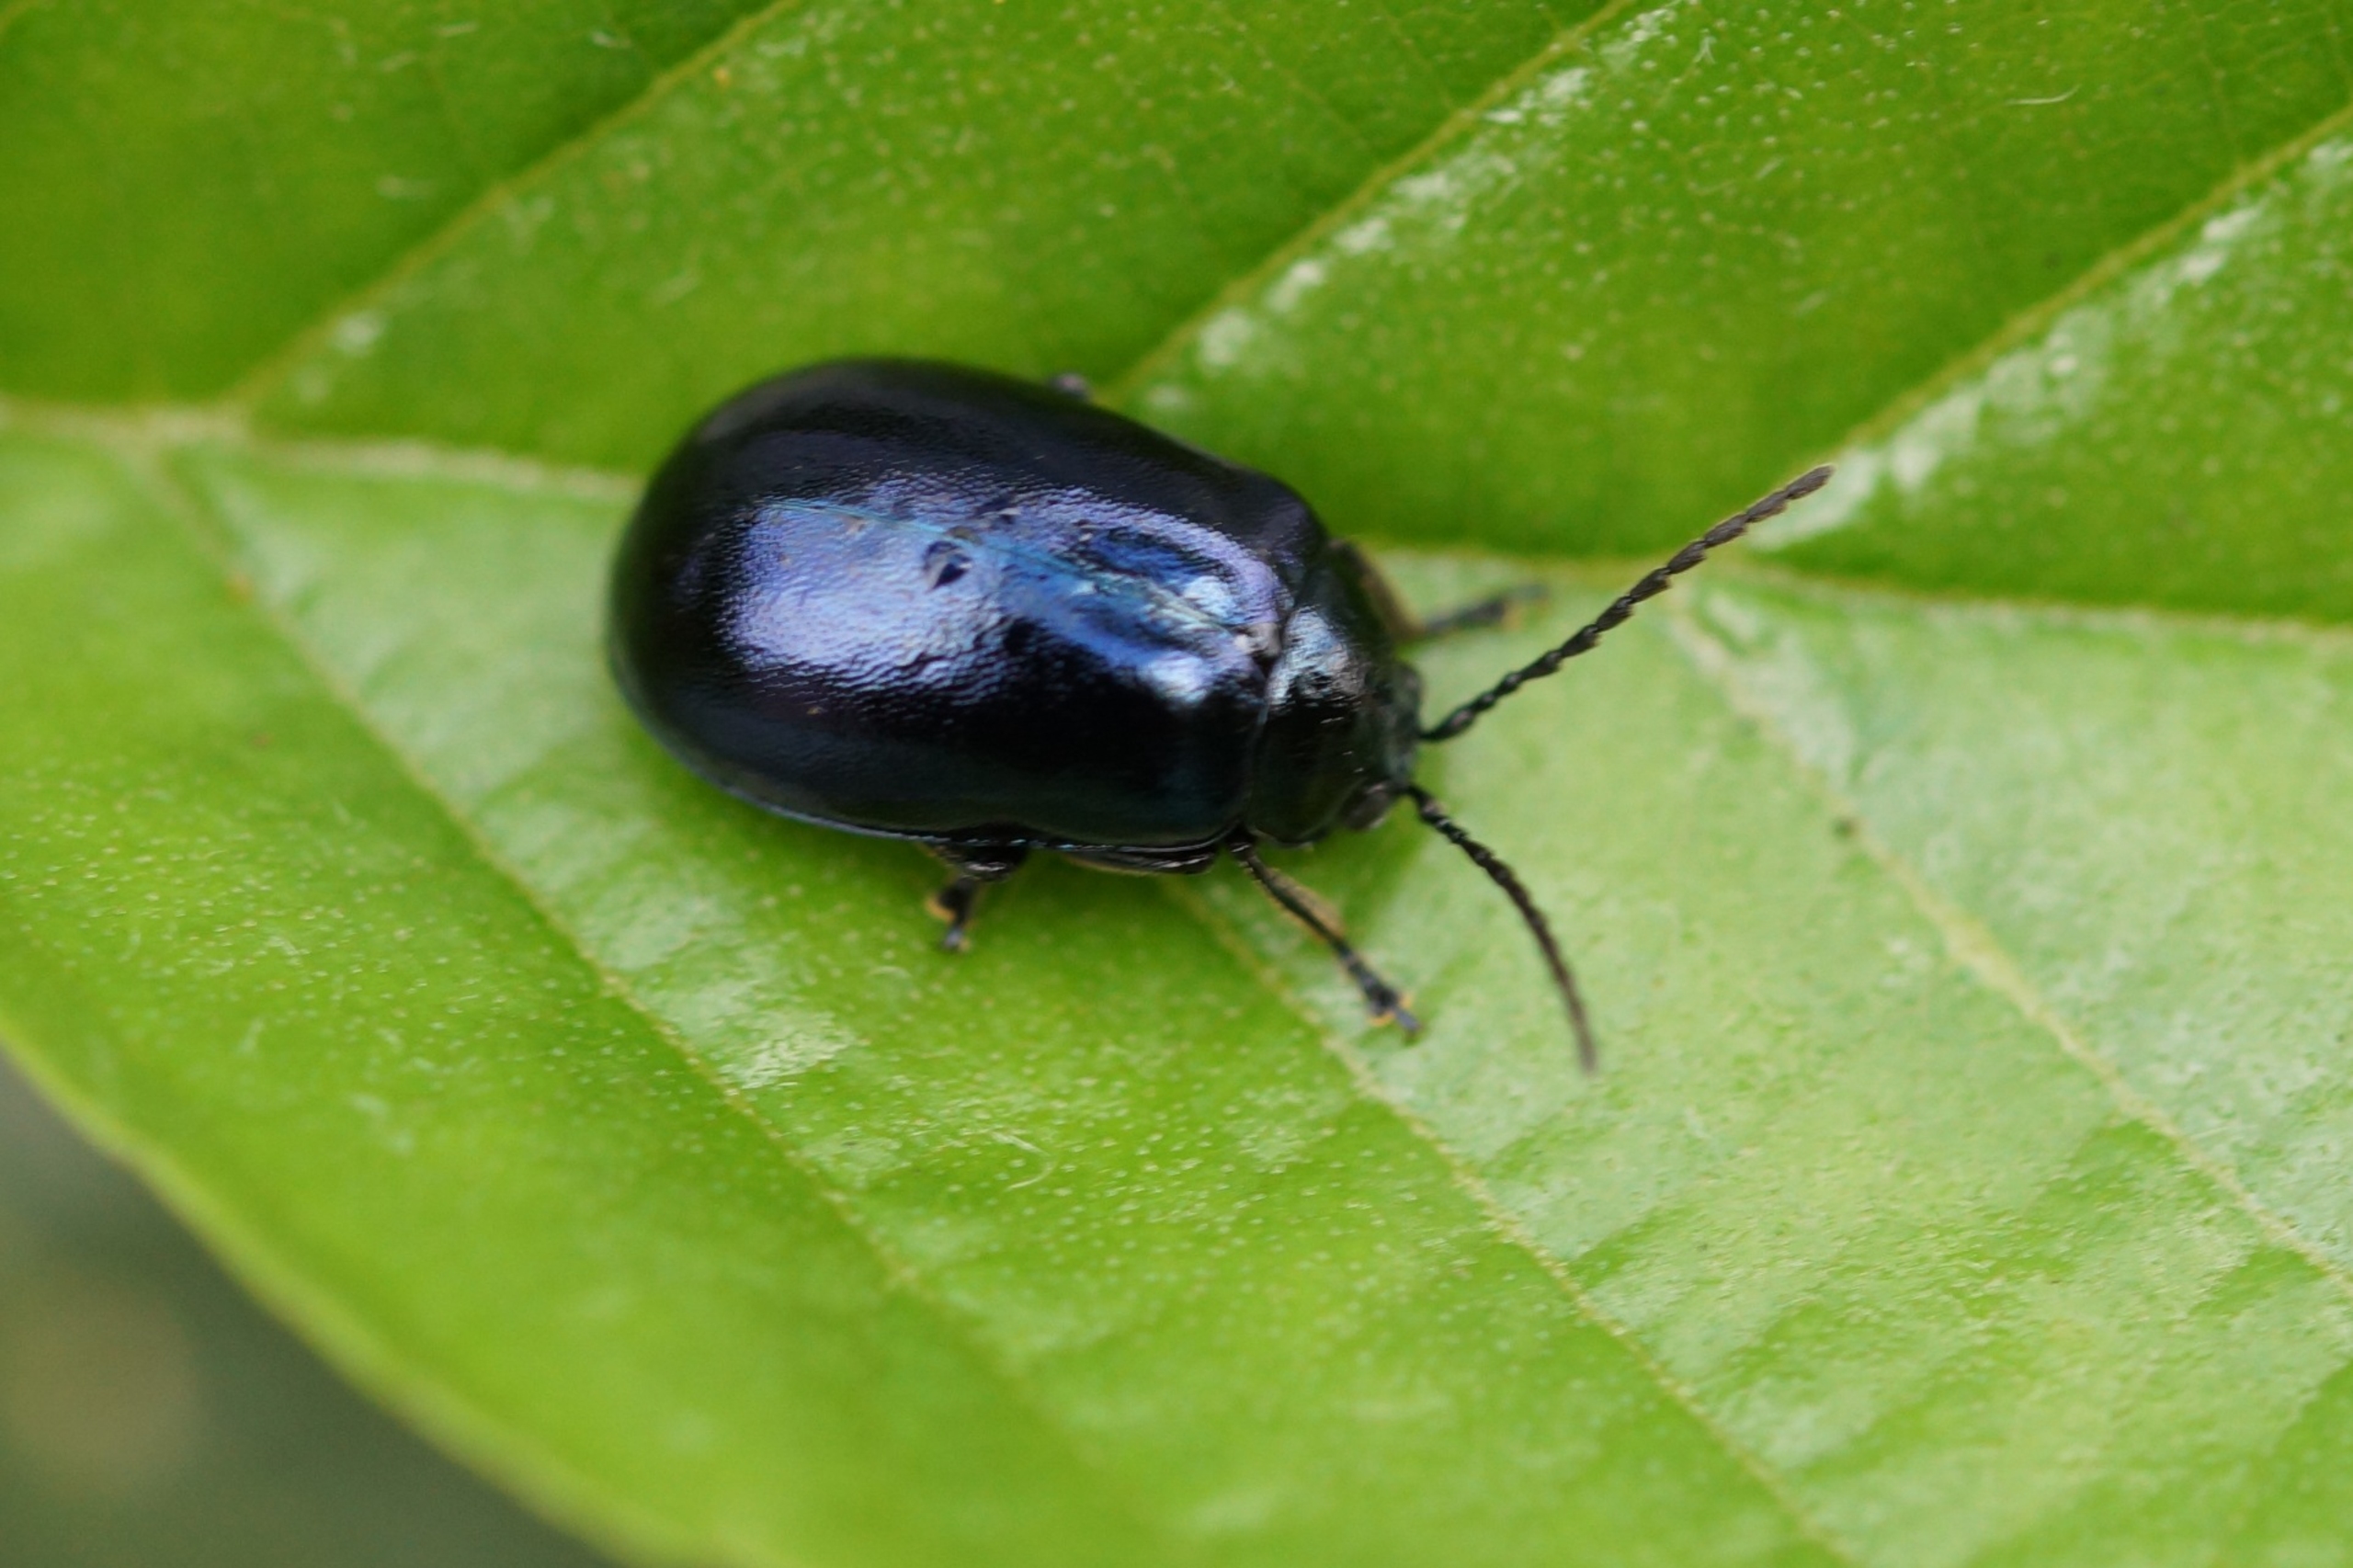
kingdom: Animalia
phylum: Arthropoda
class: Insecta
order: Coleoptera
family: Chrysomelidae
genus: Agelastica
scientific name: Agelastica alni
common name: Ellebladbille
